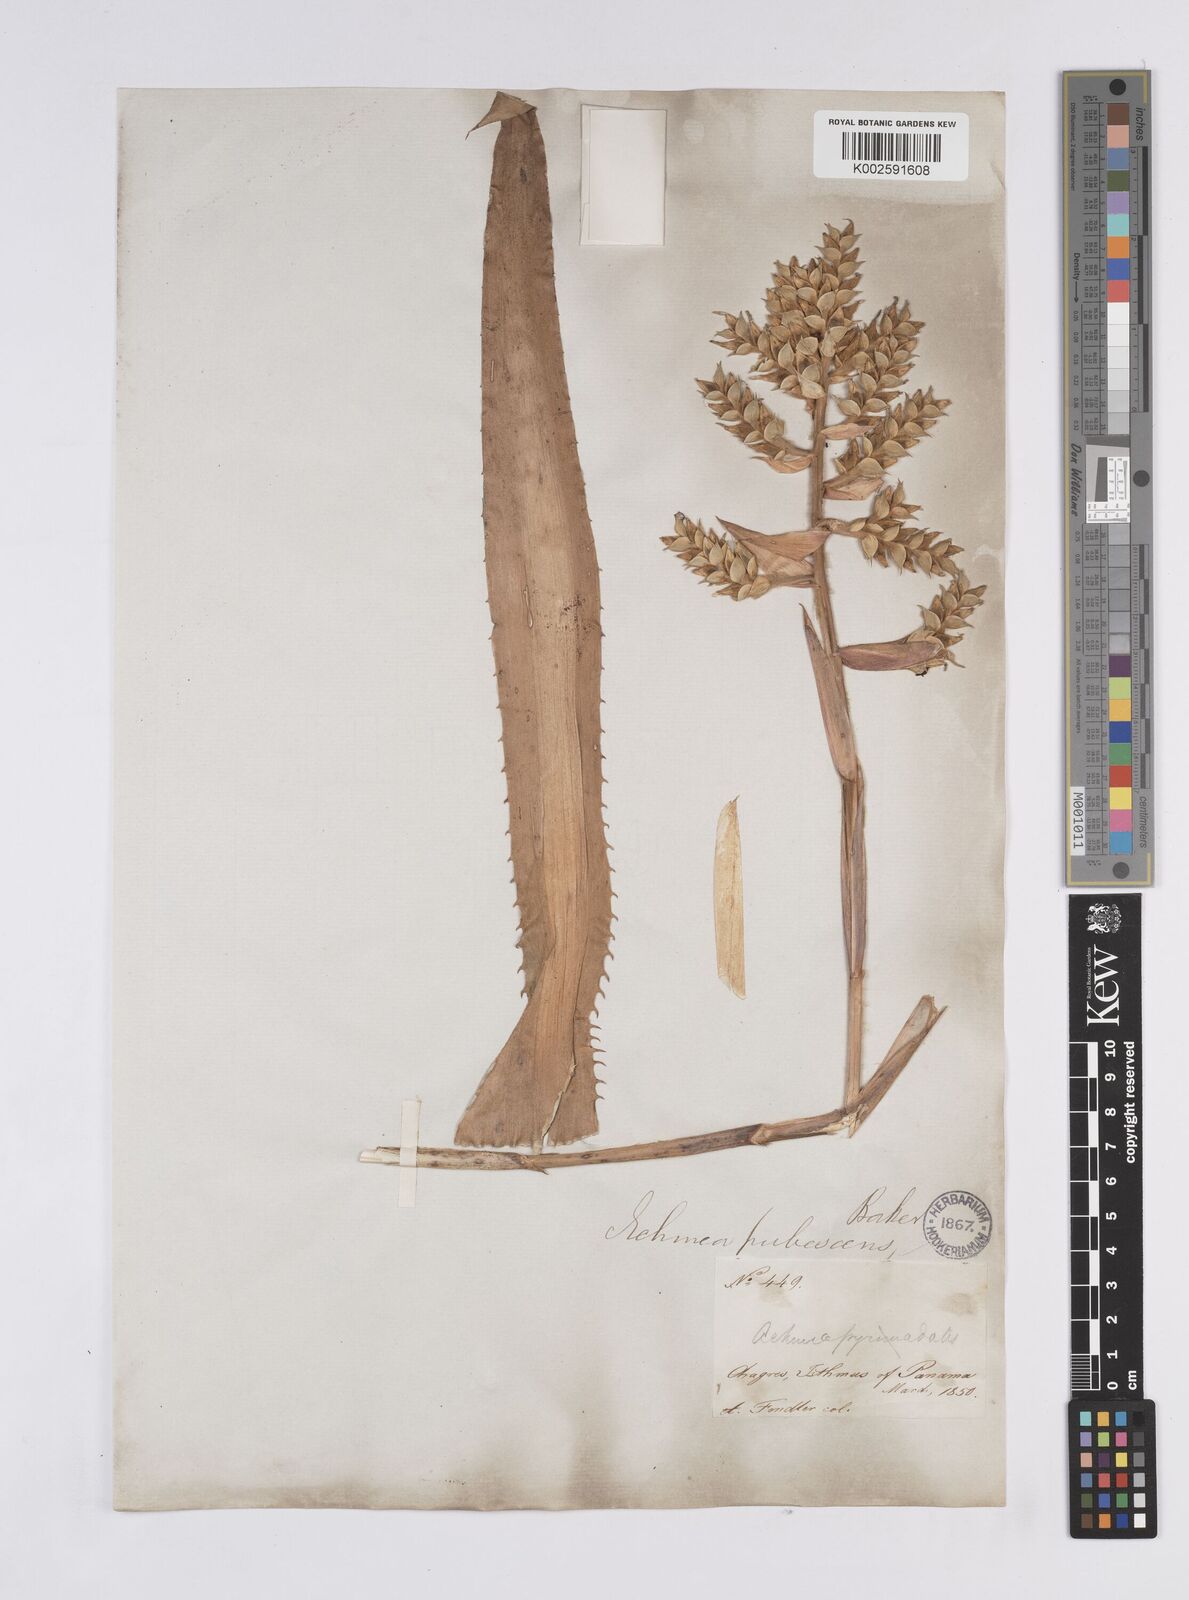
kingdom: Plantae
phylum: Tracheophyta
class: Liliopsida
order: Poales
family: Bromeliaceae
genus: Aechmea
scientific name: Aechmea pubescens
